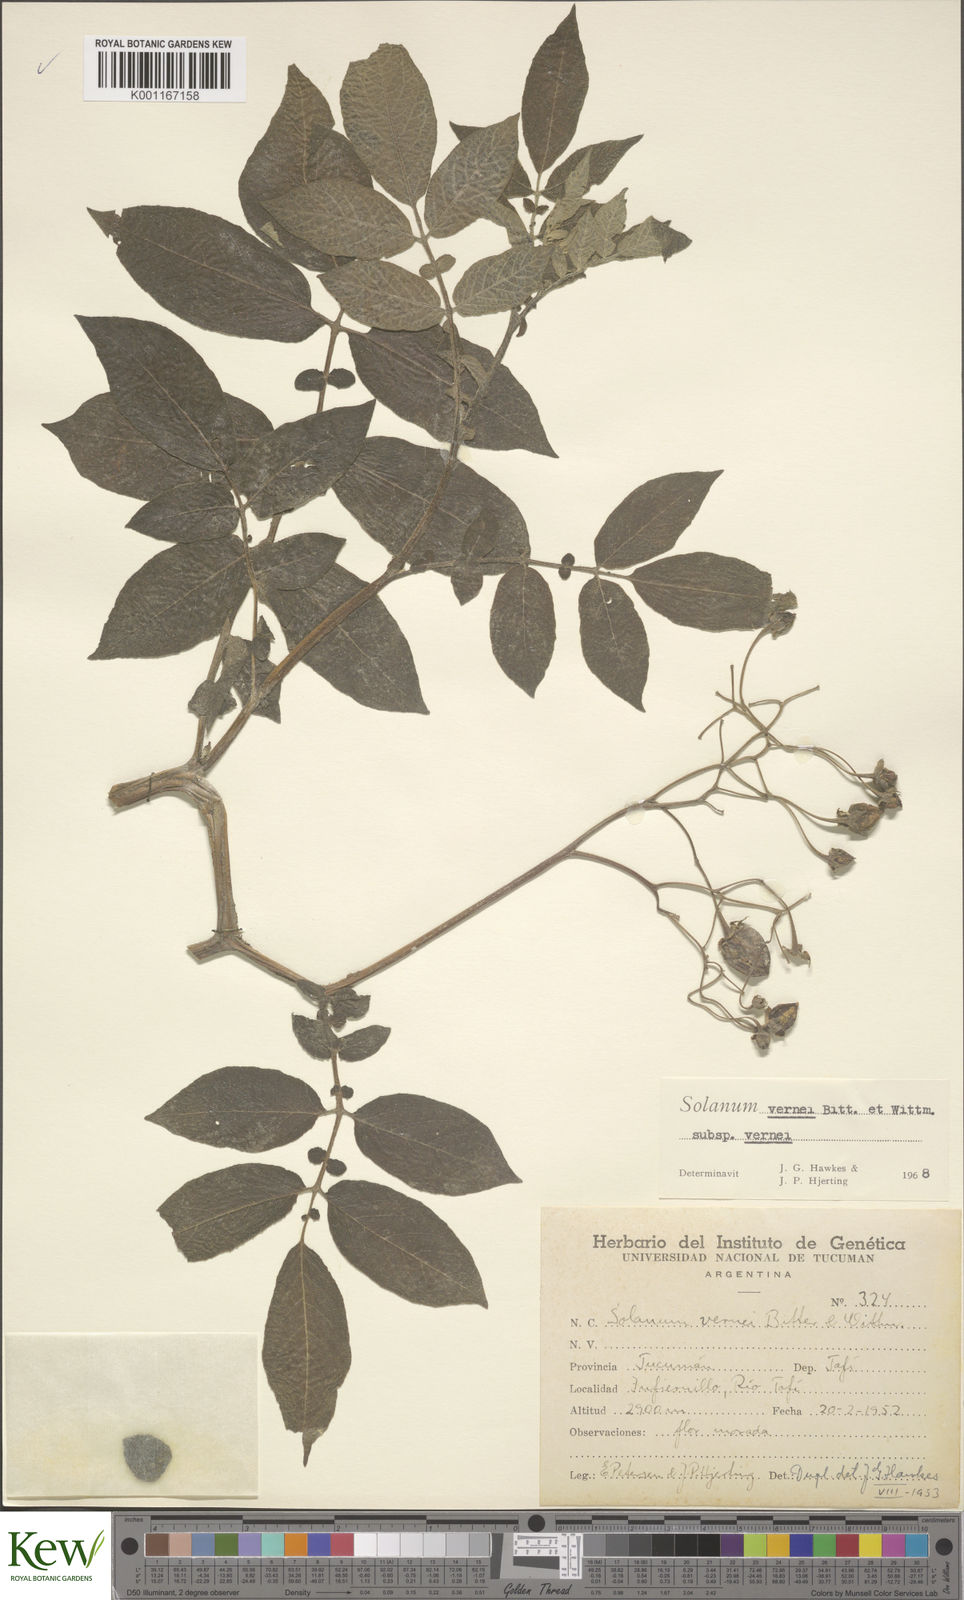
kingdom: Plantae
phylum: Tracheophyta
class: Magnoliopsida
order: Solanales
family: Solanaceae
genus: Solanum
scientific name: Solanum vernei
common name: Purple potato
